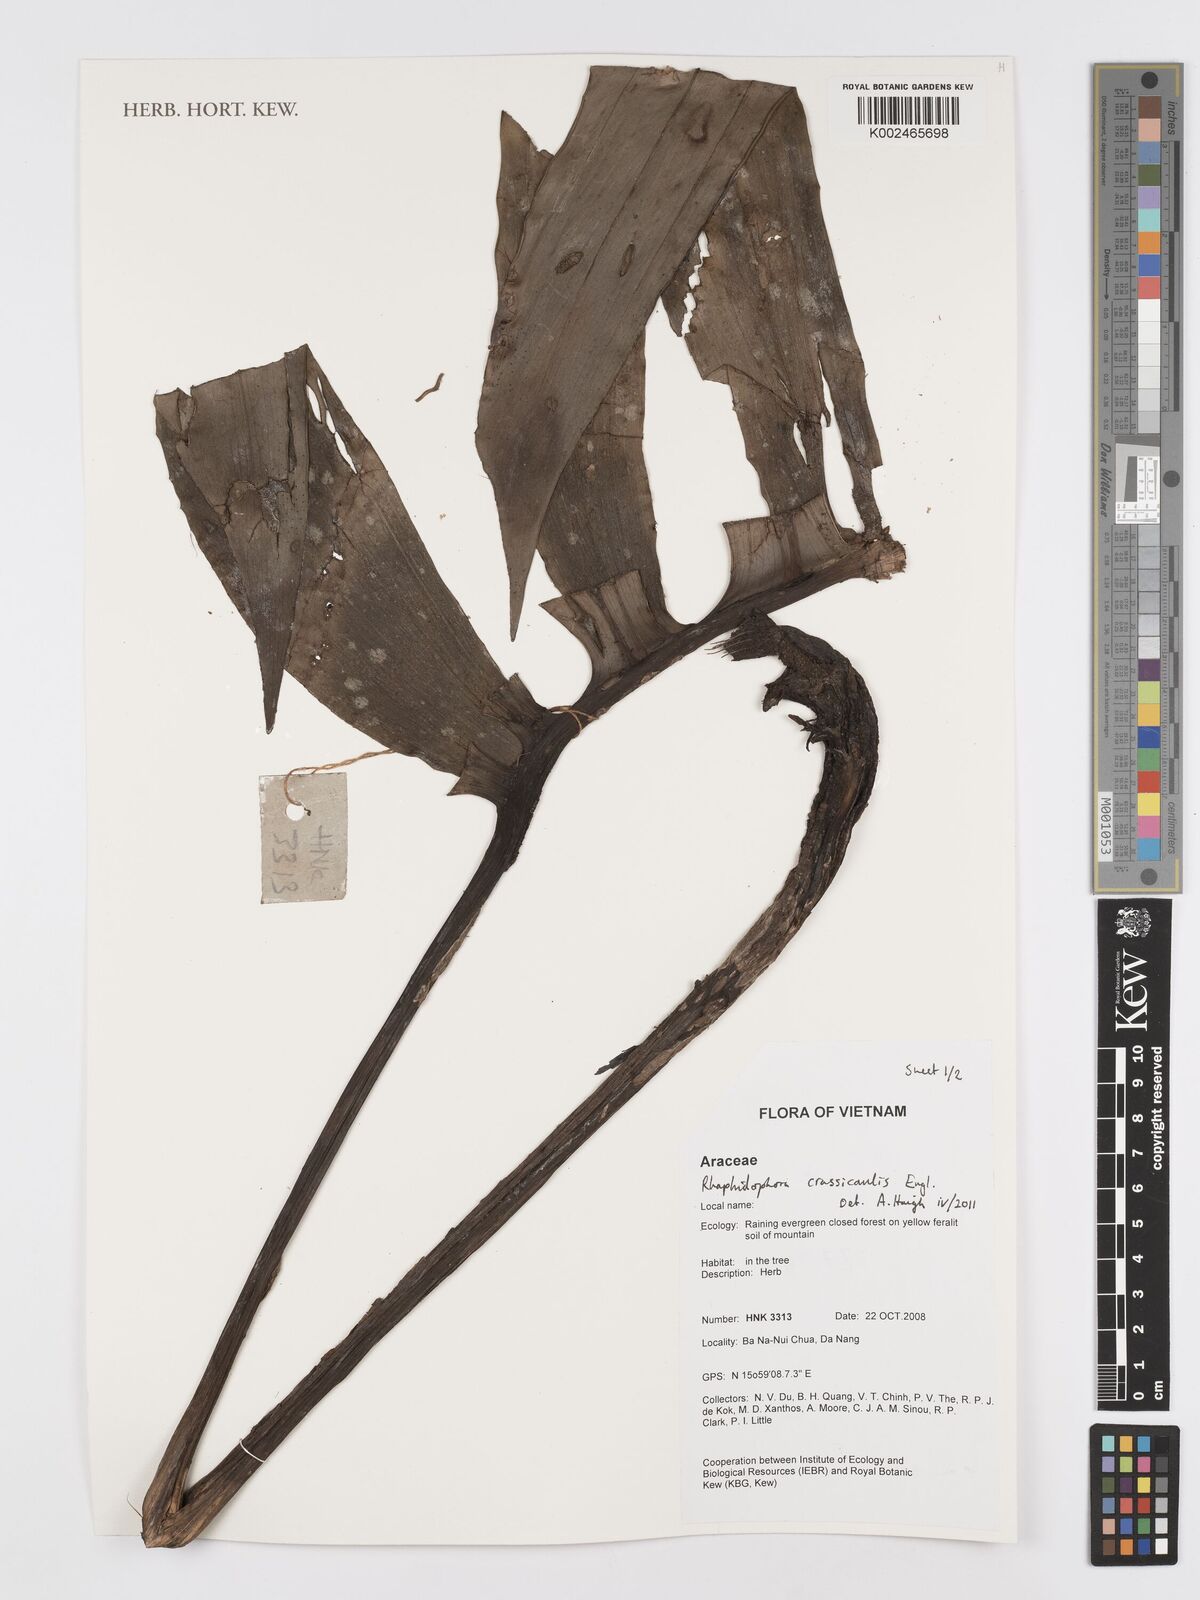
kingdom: Plantae
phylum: Tracheophyta
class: Liliopsida
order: Alismatales
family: Araceae
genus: Rhaphidophora
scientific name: Rhaphidophora crassicaulis
